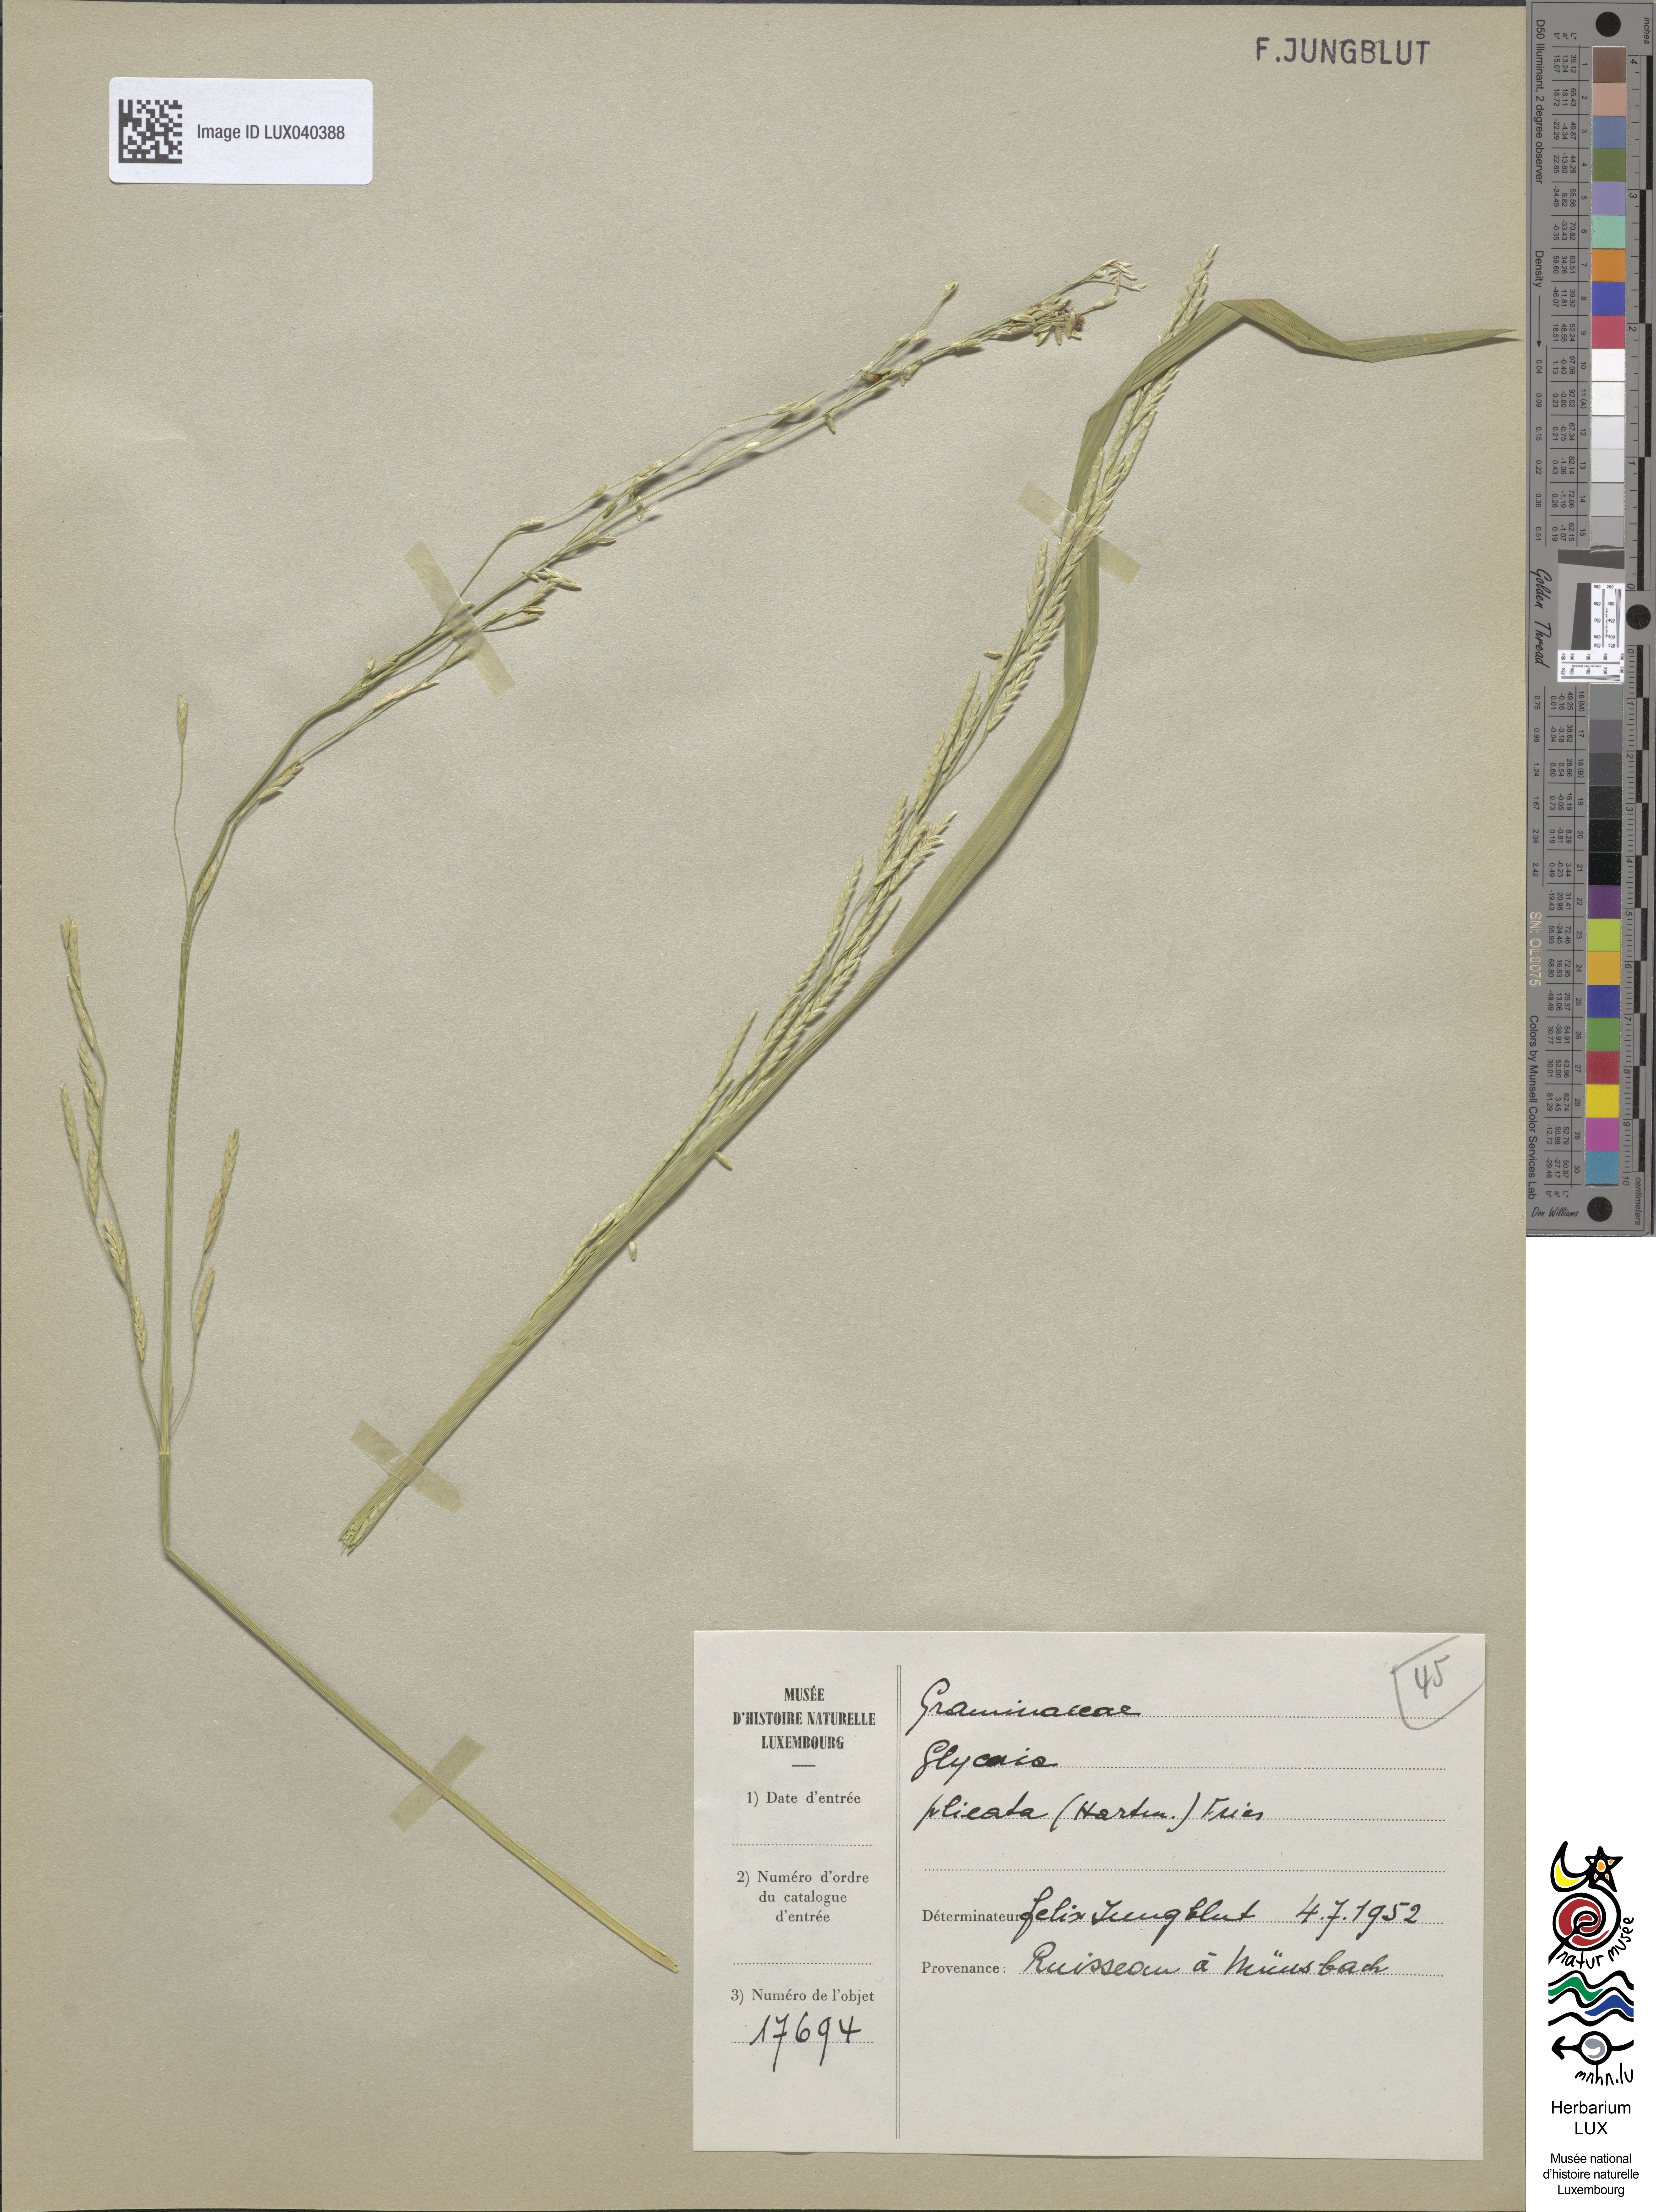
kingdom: Plantae
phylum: Tracheophyta
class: Liliopsida
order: Poales
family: Poaceae
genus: Glyceria
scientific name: Glyceria notata
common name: Plicate sweet-grass
